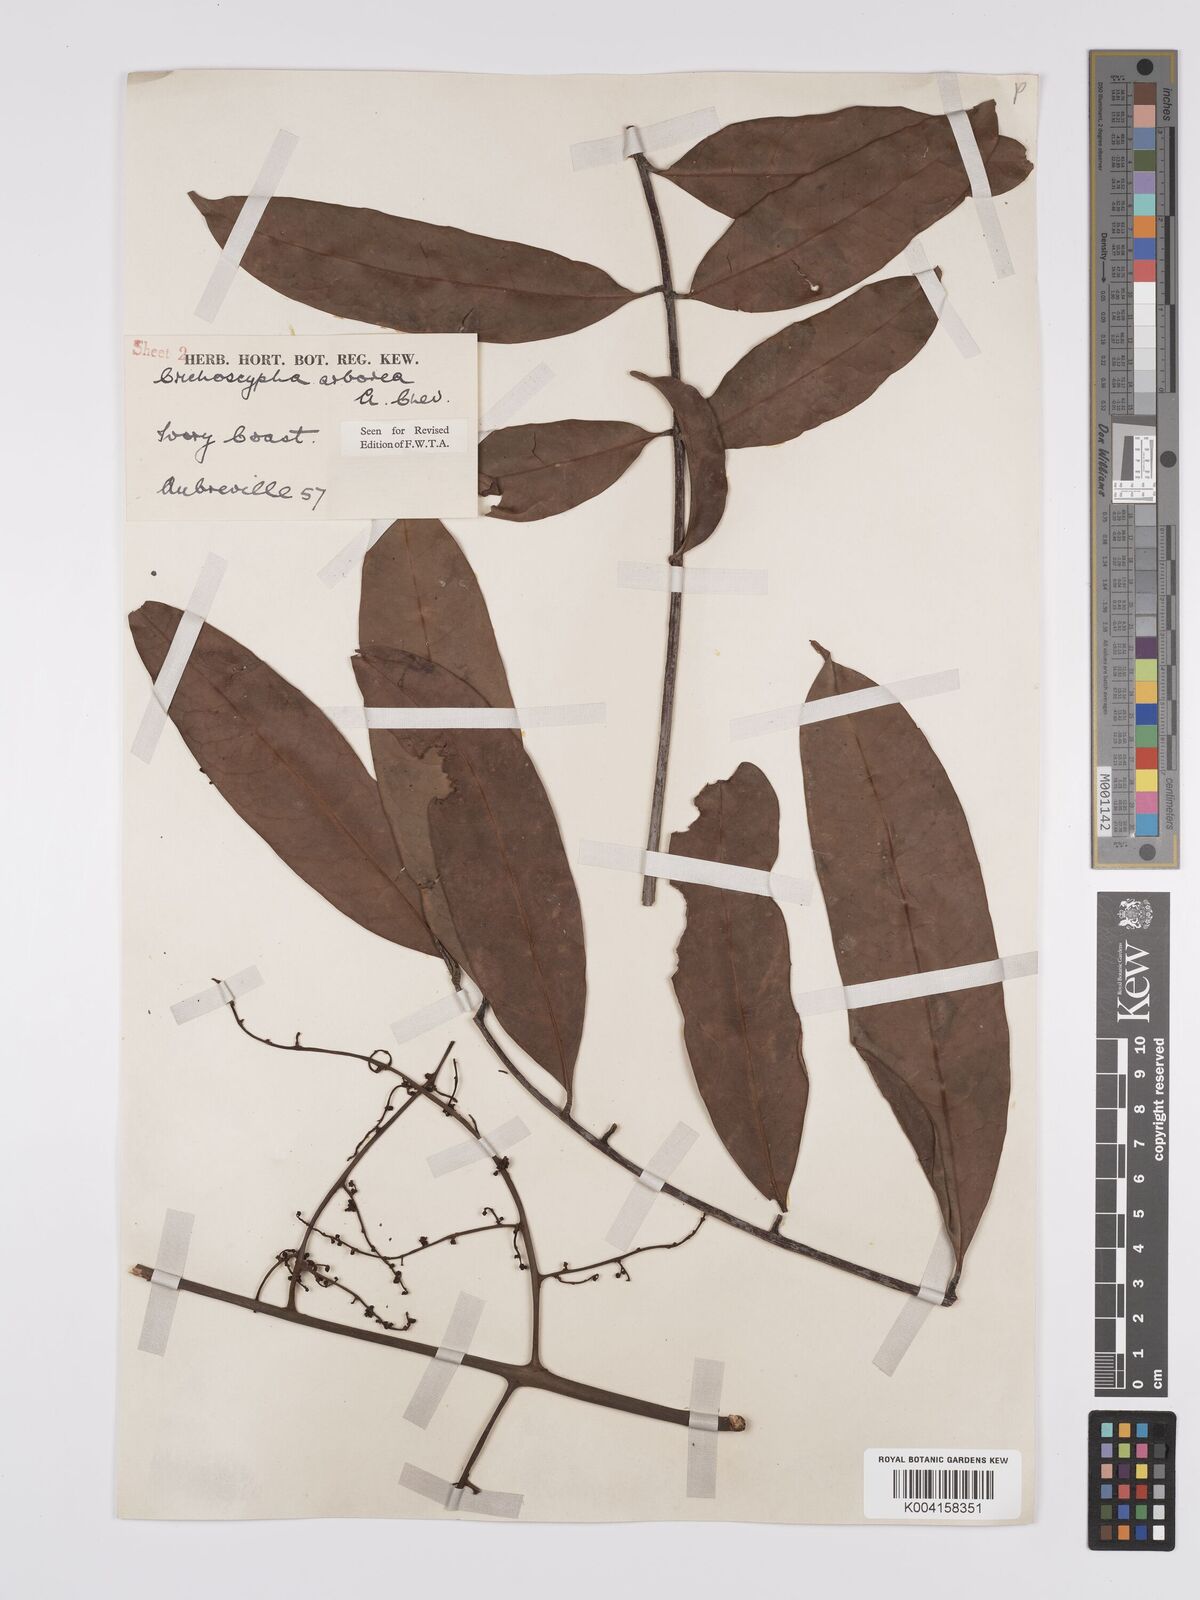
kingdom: Plantae
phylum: Tracheophyta
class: Magnoliopsida
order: Sapindales
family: Anacardiaceae
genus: Trichoscypha
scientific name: Trichoscypha arborea
